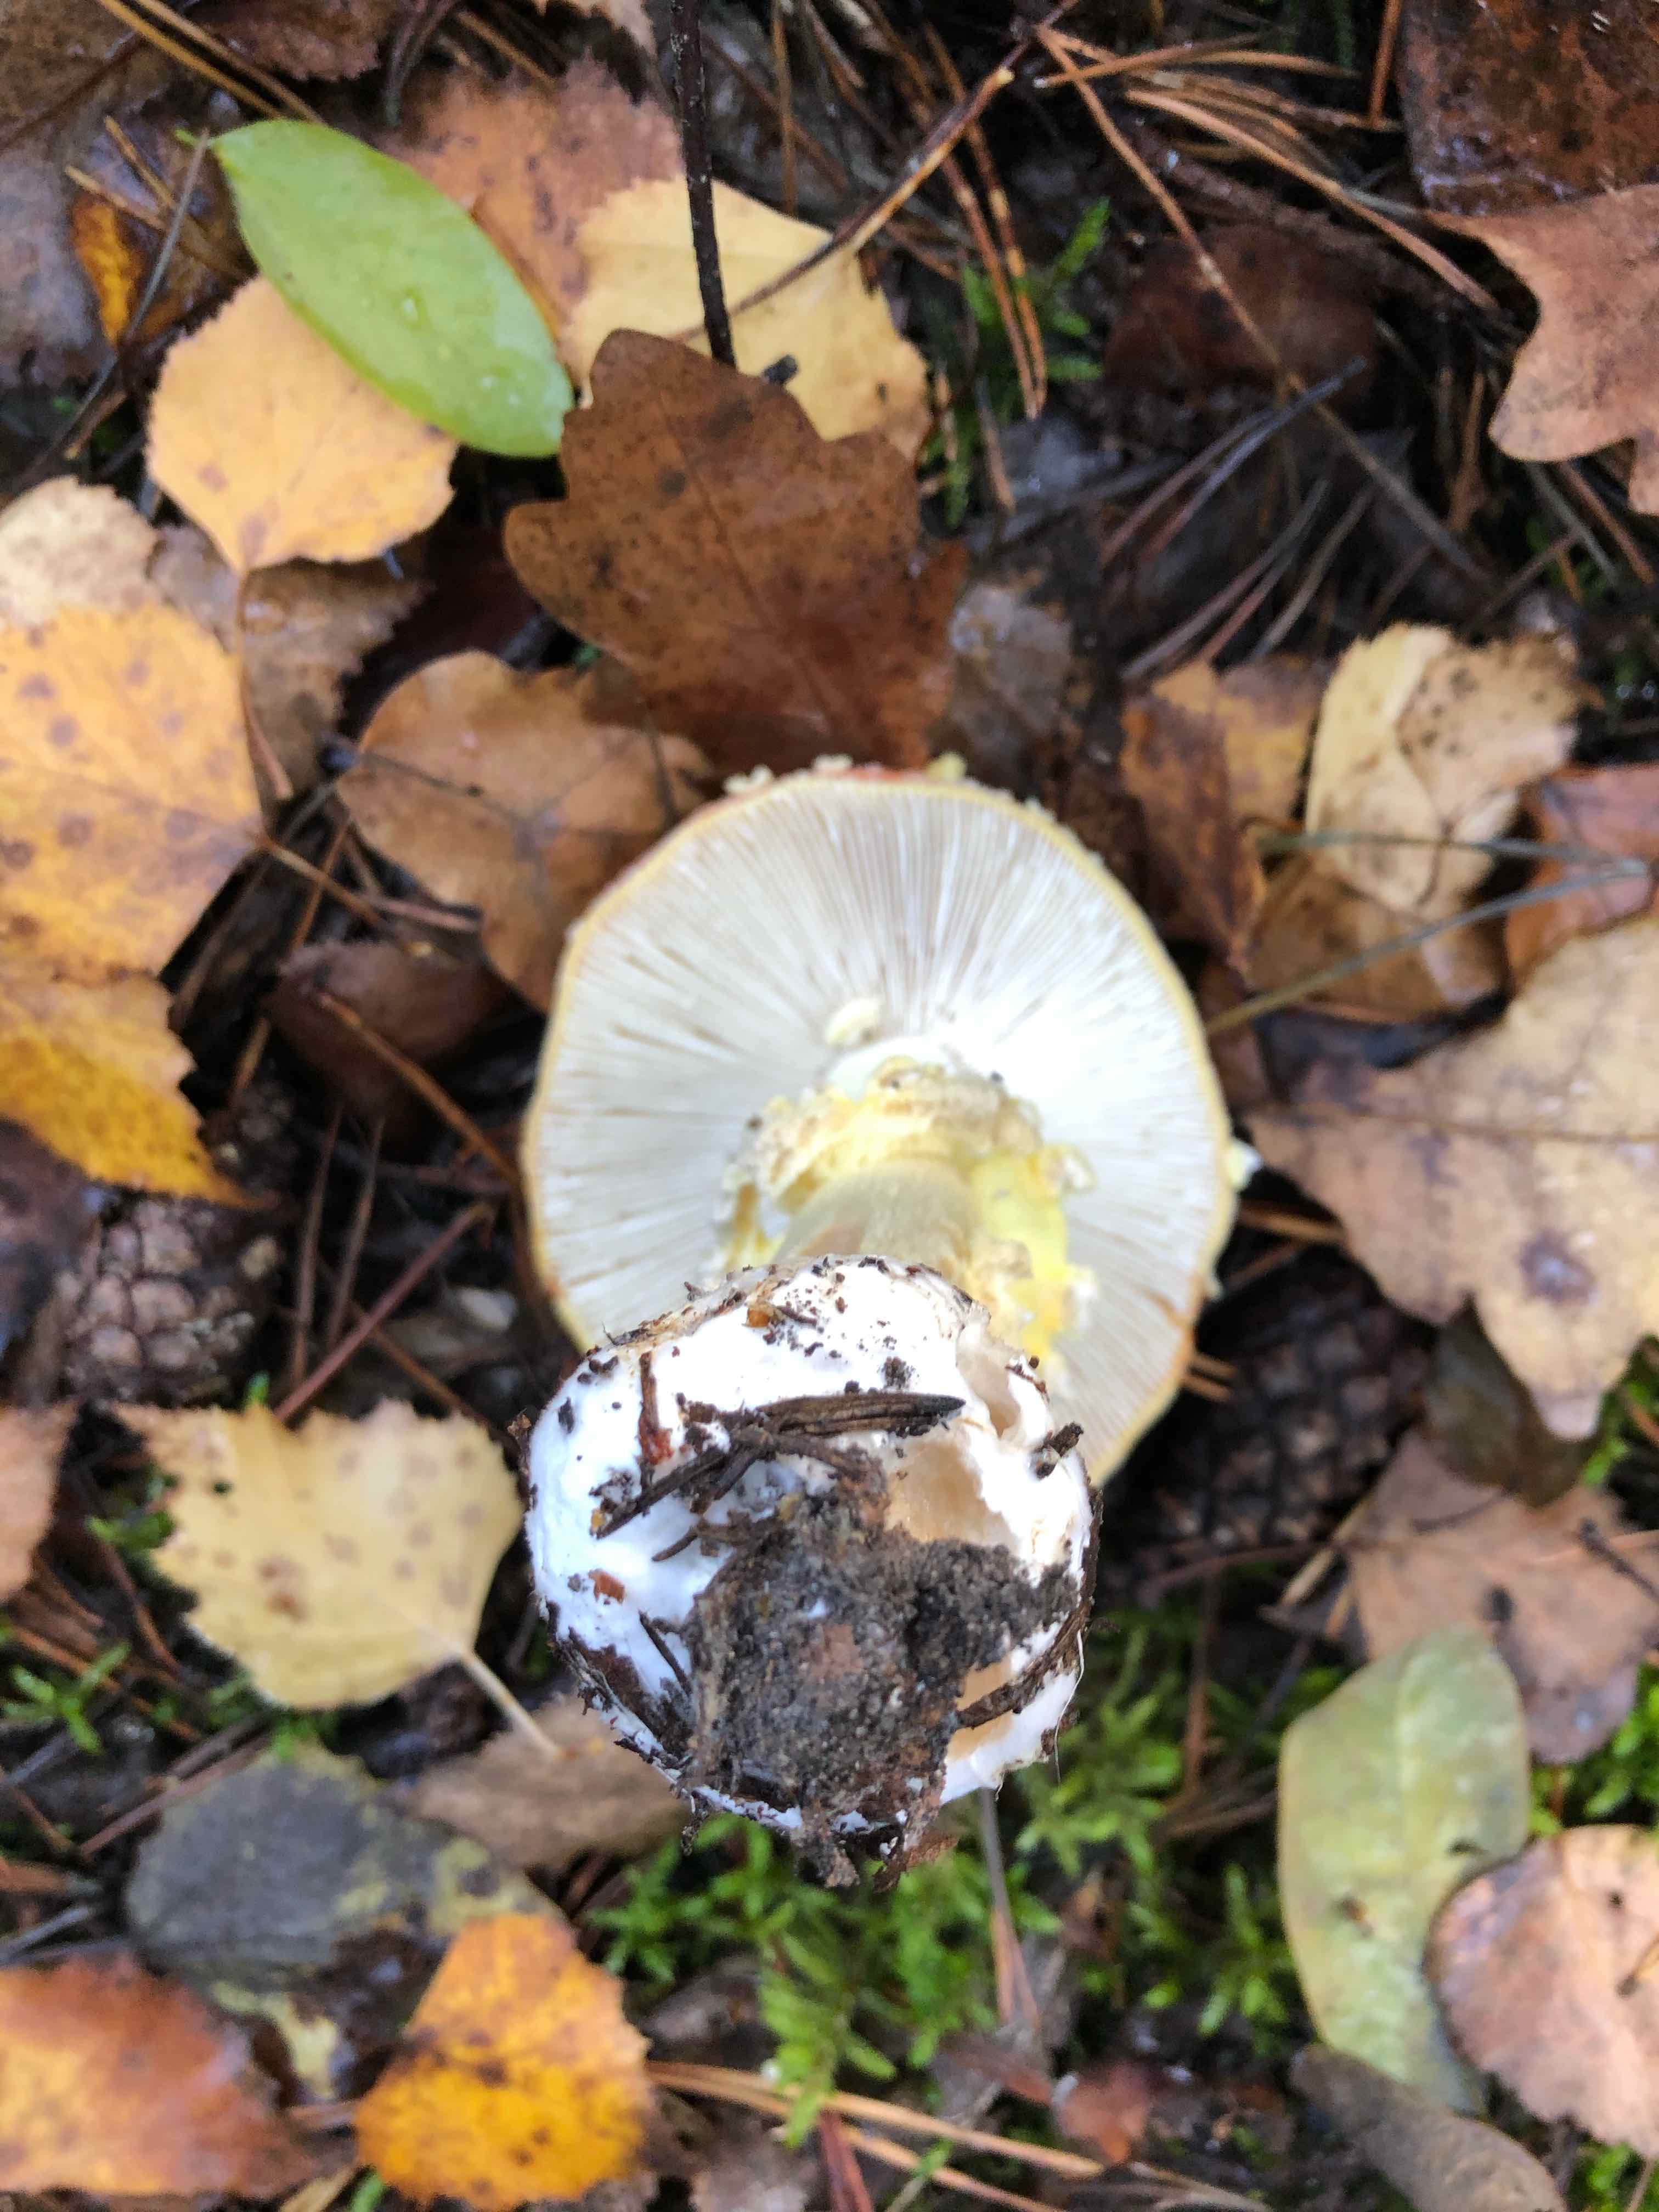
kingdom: Fungi
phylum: Basidiomycota
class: Agaricomycetes
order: Agaricales
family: Amanitaceae
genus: Amanita
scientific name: Amanita muscaria
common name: rød fluesvamp
